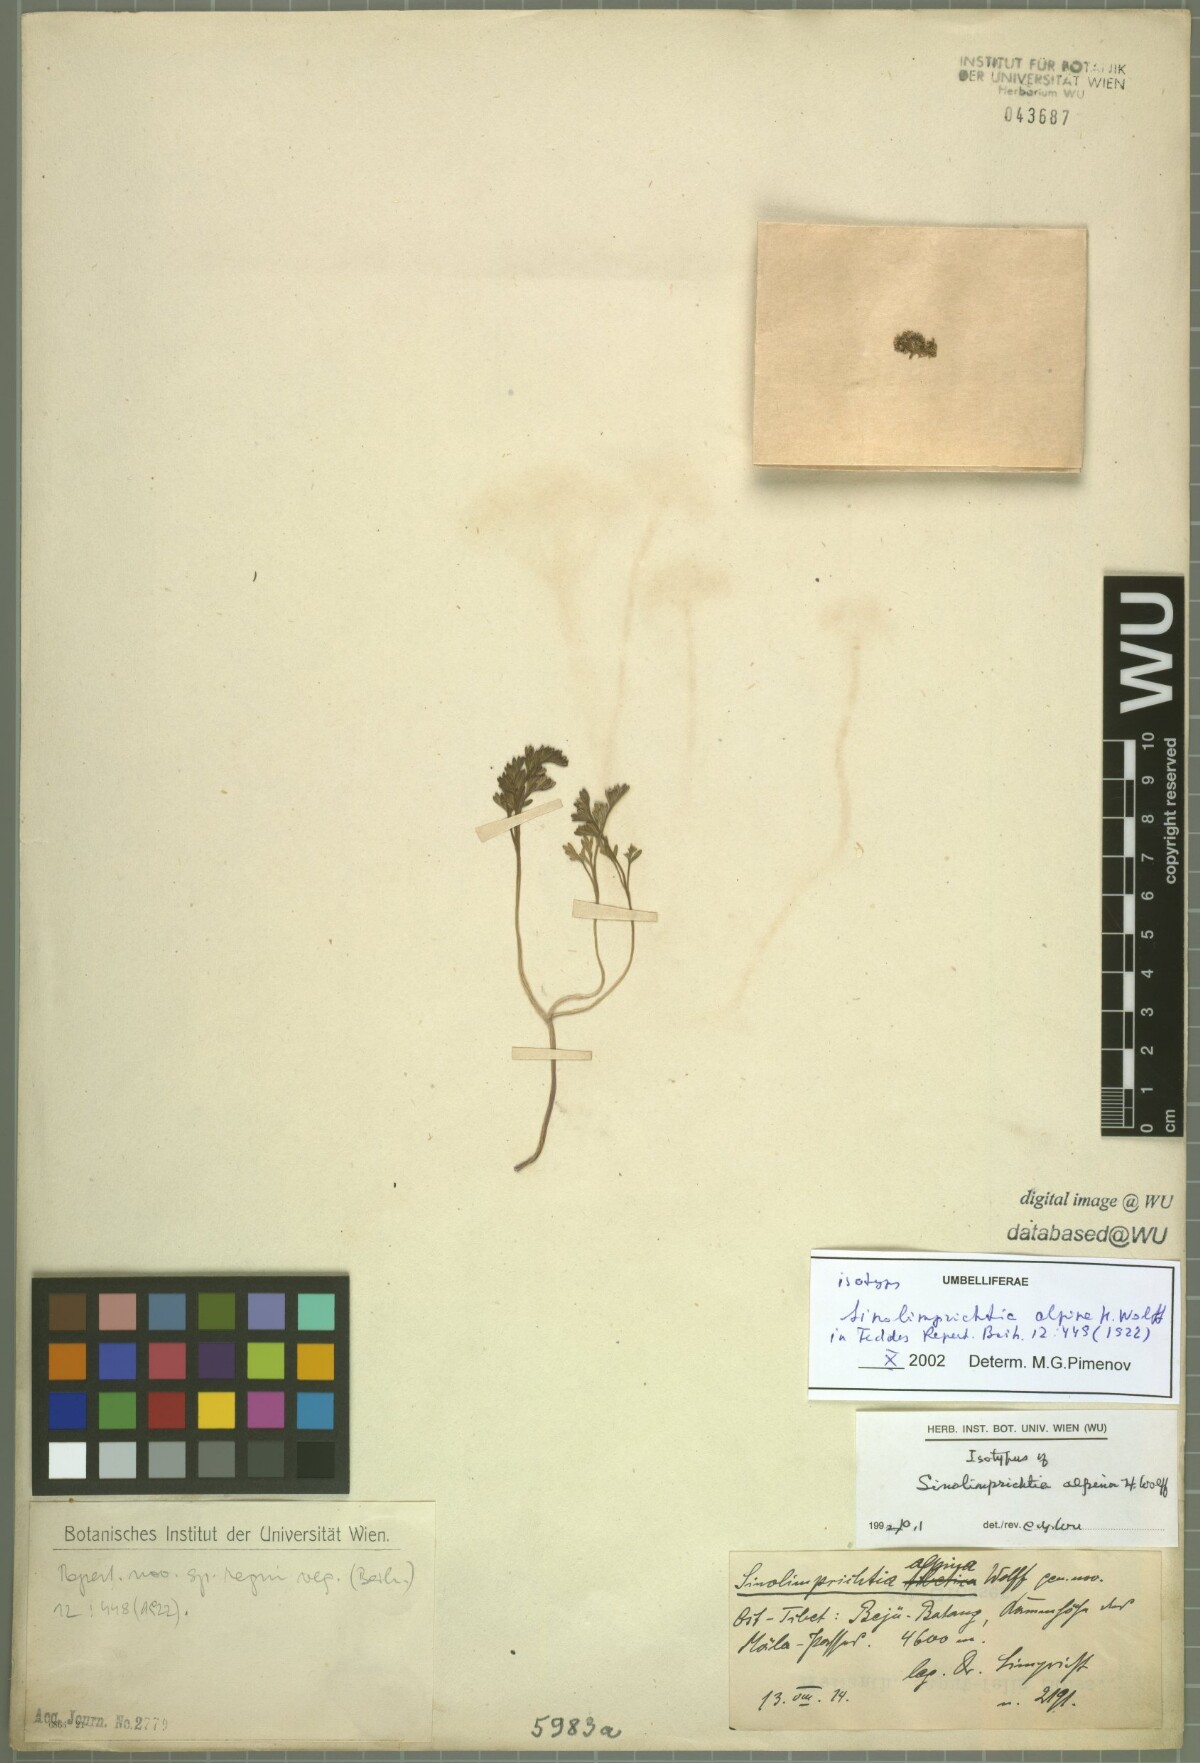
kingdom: Plantae
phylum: Tracheophyta
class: Magnoliopsida
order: Apiales
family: Apiaceae
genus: Sinolimprichtia
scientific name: Sinolimprichtia alpina
